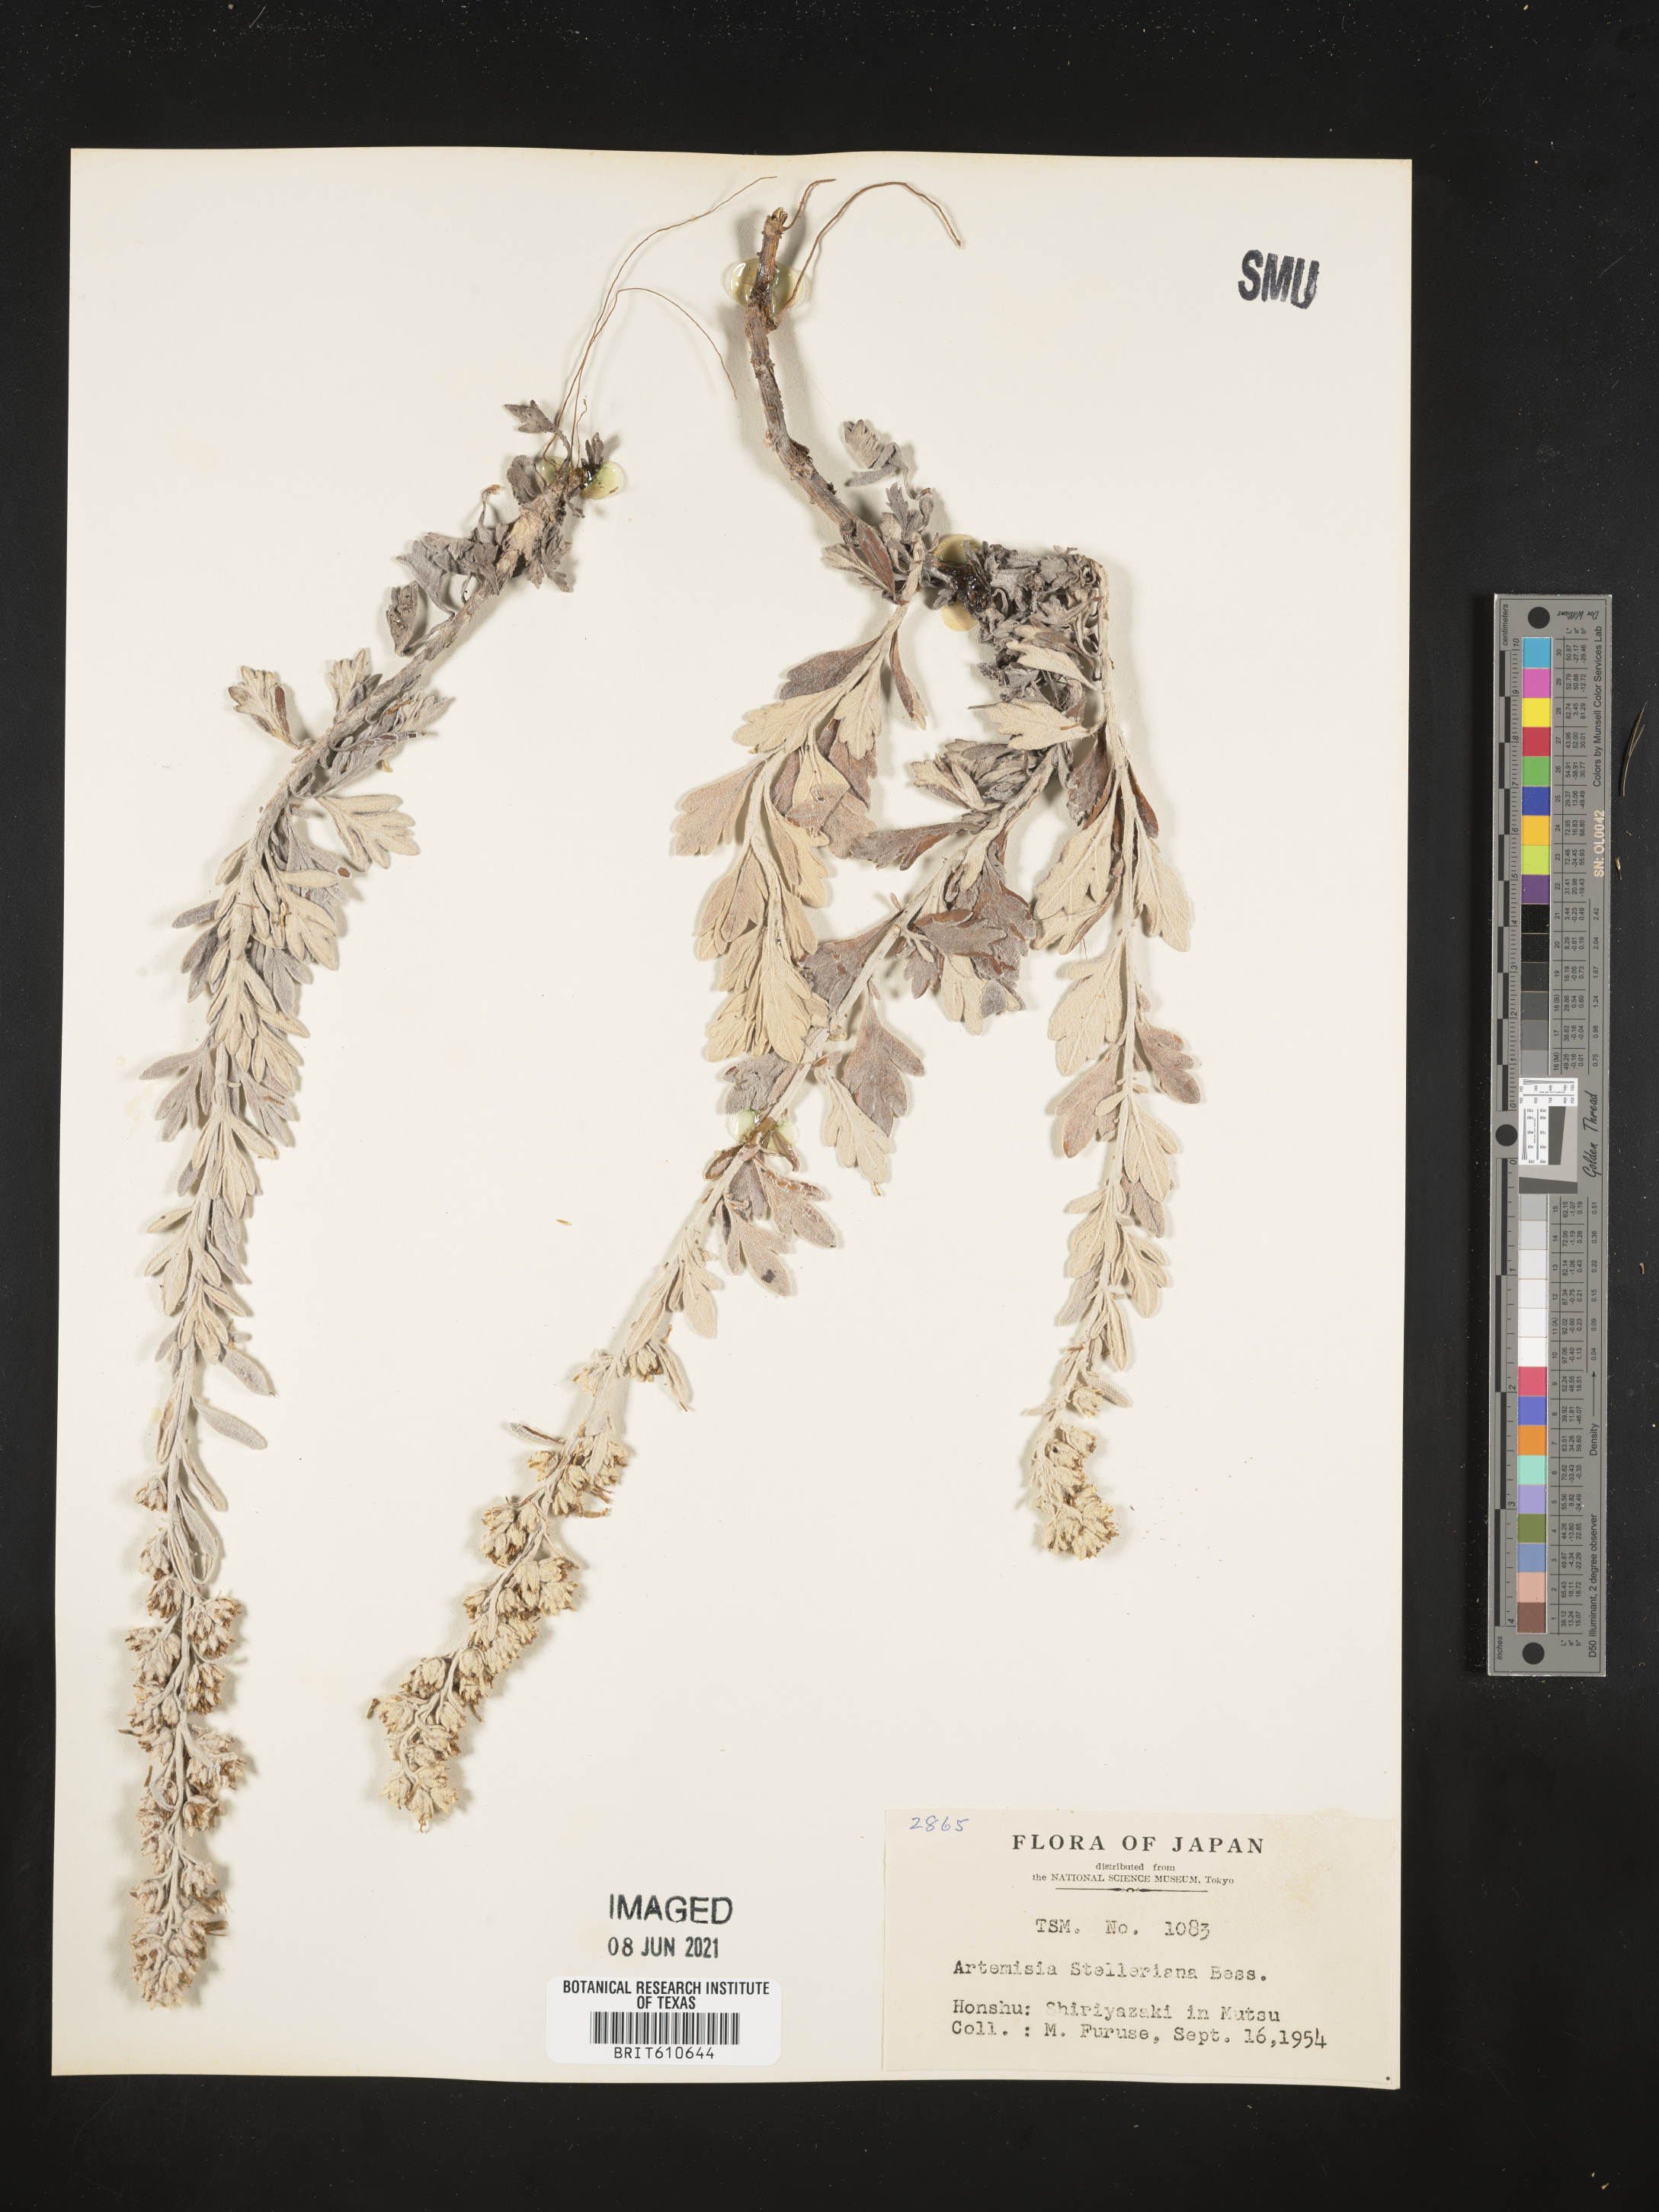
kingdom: Plantae
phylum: Tracheophyta
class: Magnoliopsida
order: Asterales
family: Asteraceae
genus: Artemisia
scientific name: Artemisia stelleriana
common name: Beach wormwood
